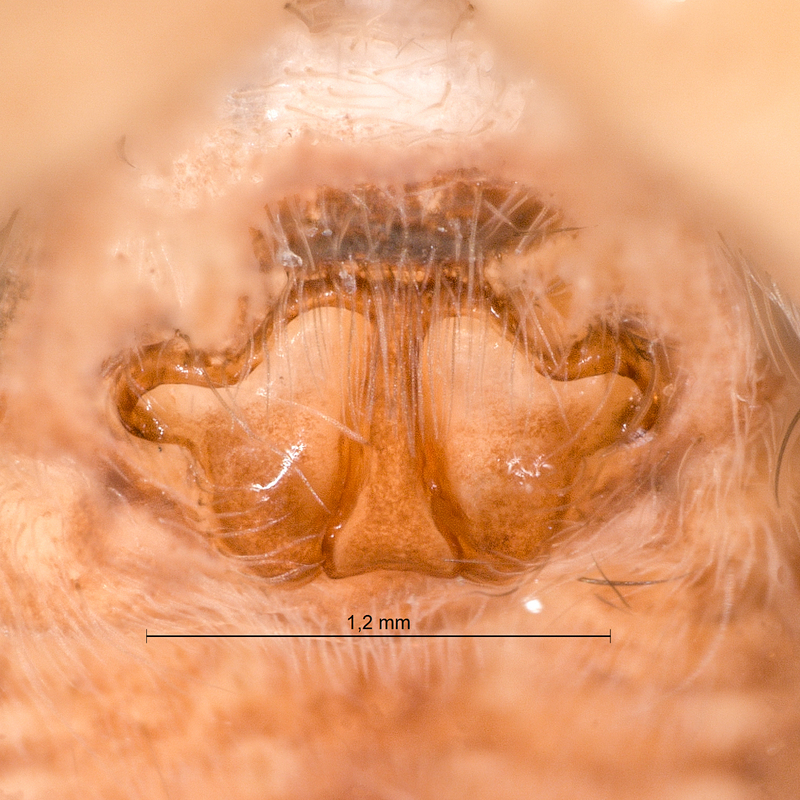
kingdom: Animalia
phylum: Arthropoda
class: Arachnida
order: Araneae
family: Lycosidae
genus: Pardosa
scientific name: Pardosa pullata
